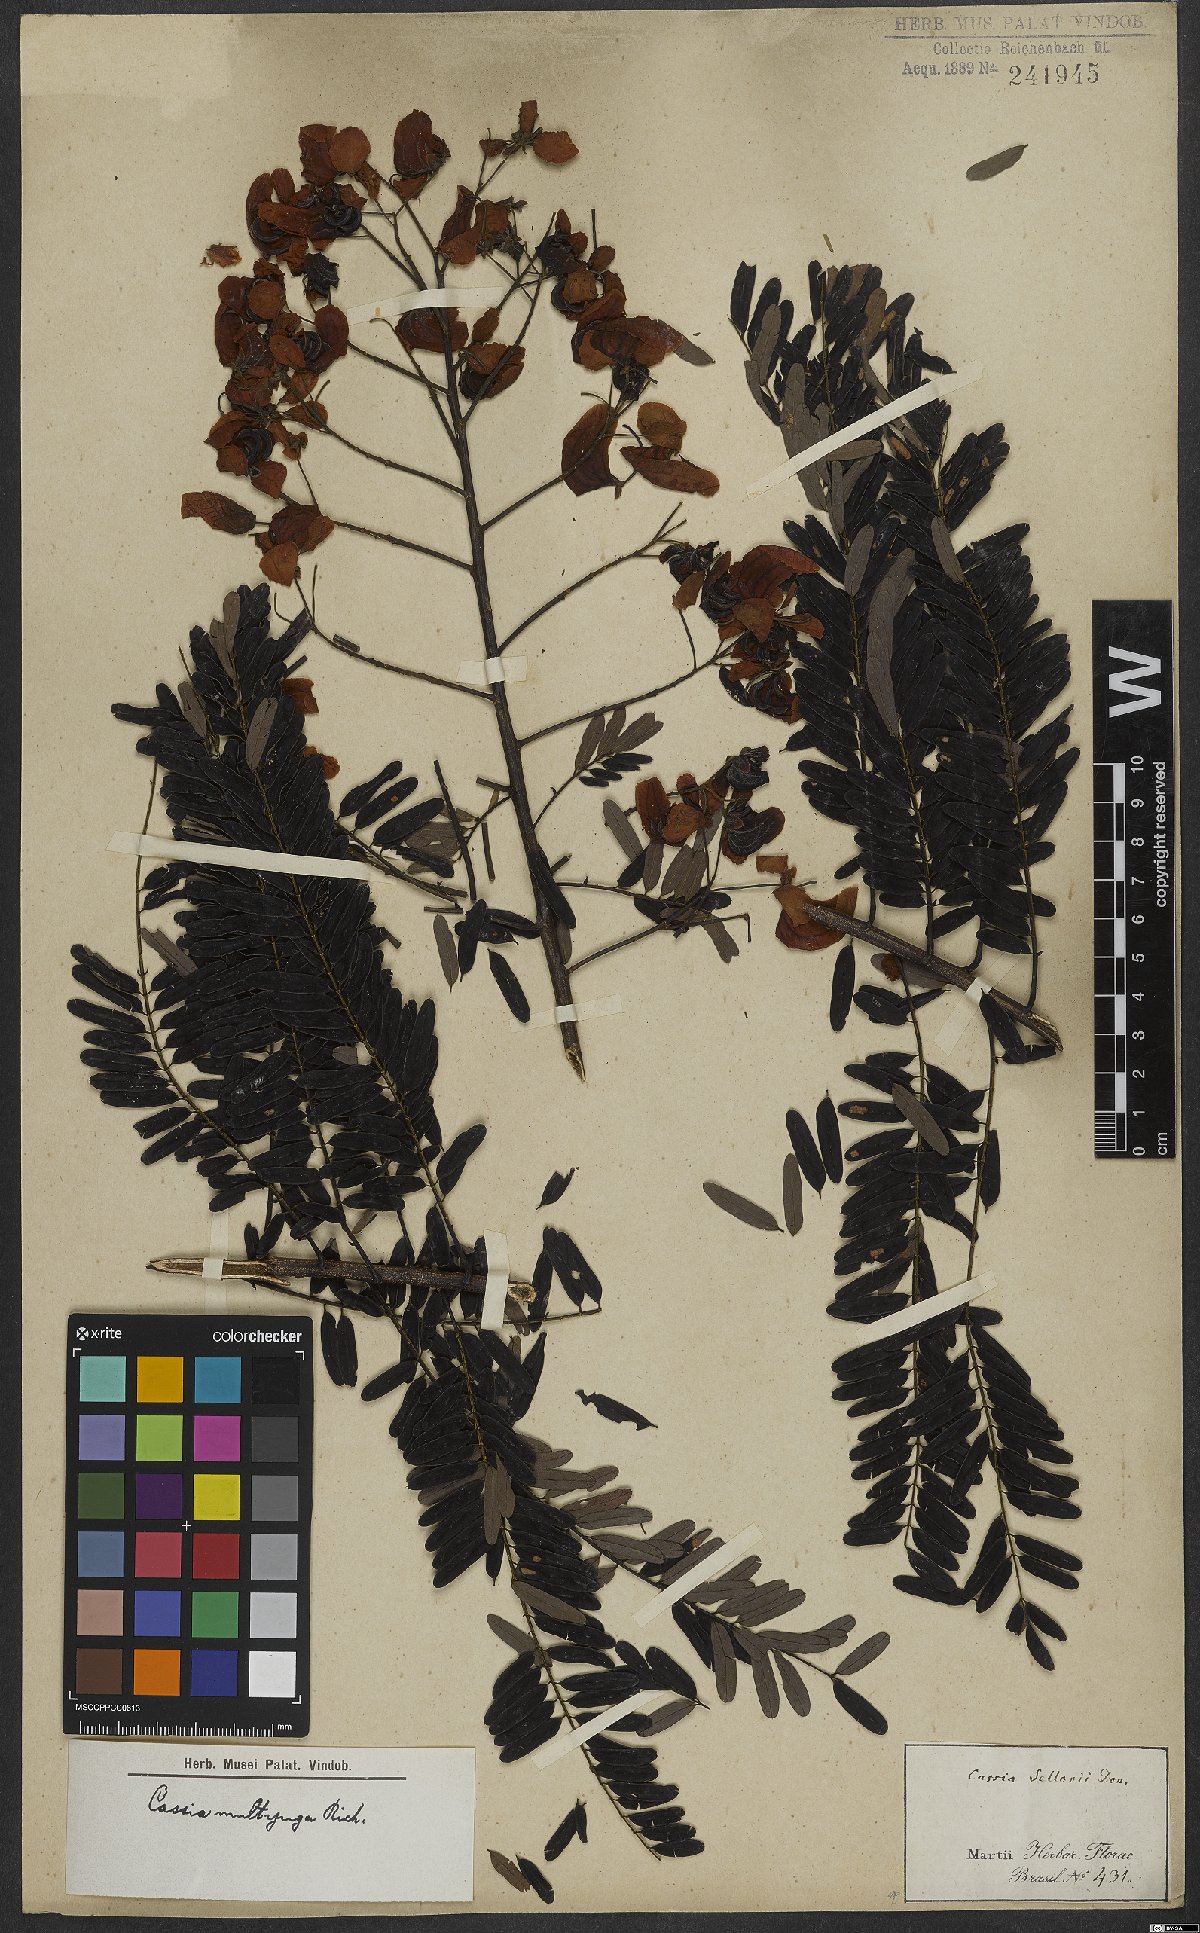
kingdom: Plantae
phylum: Tracheophyta
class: Magnoliopsida
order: Fabales
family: Fabaceae
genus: Senna
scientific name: Senna multijuga
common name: False sicklepod
